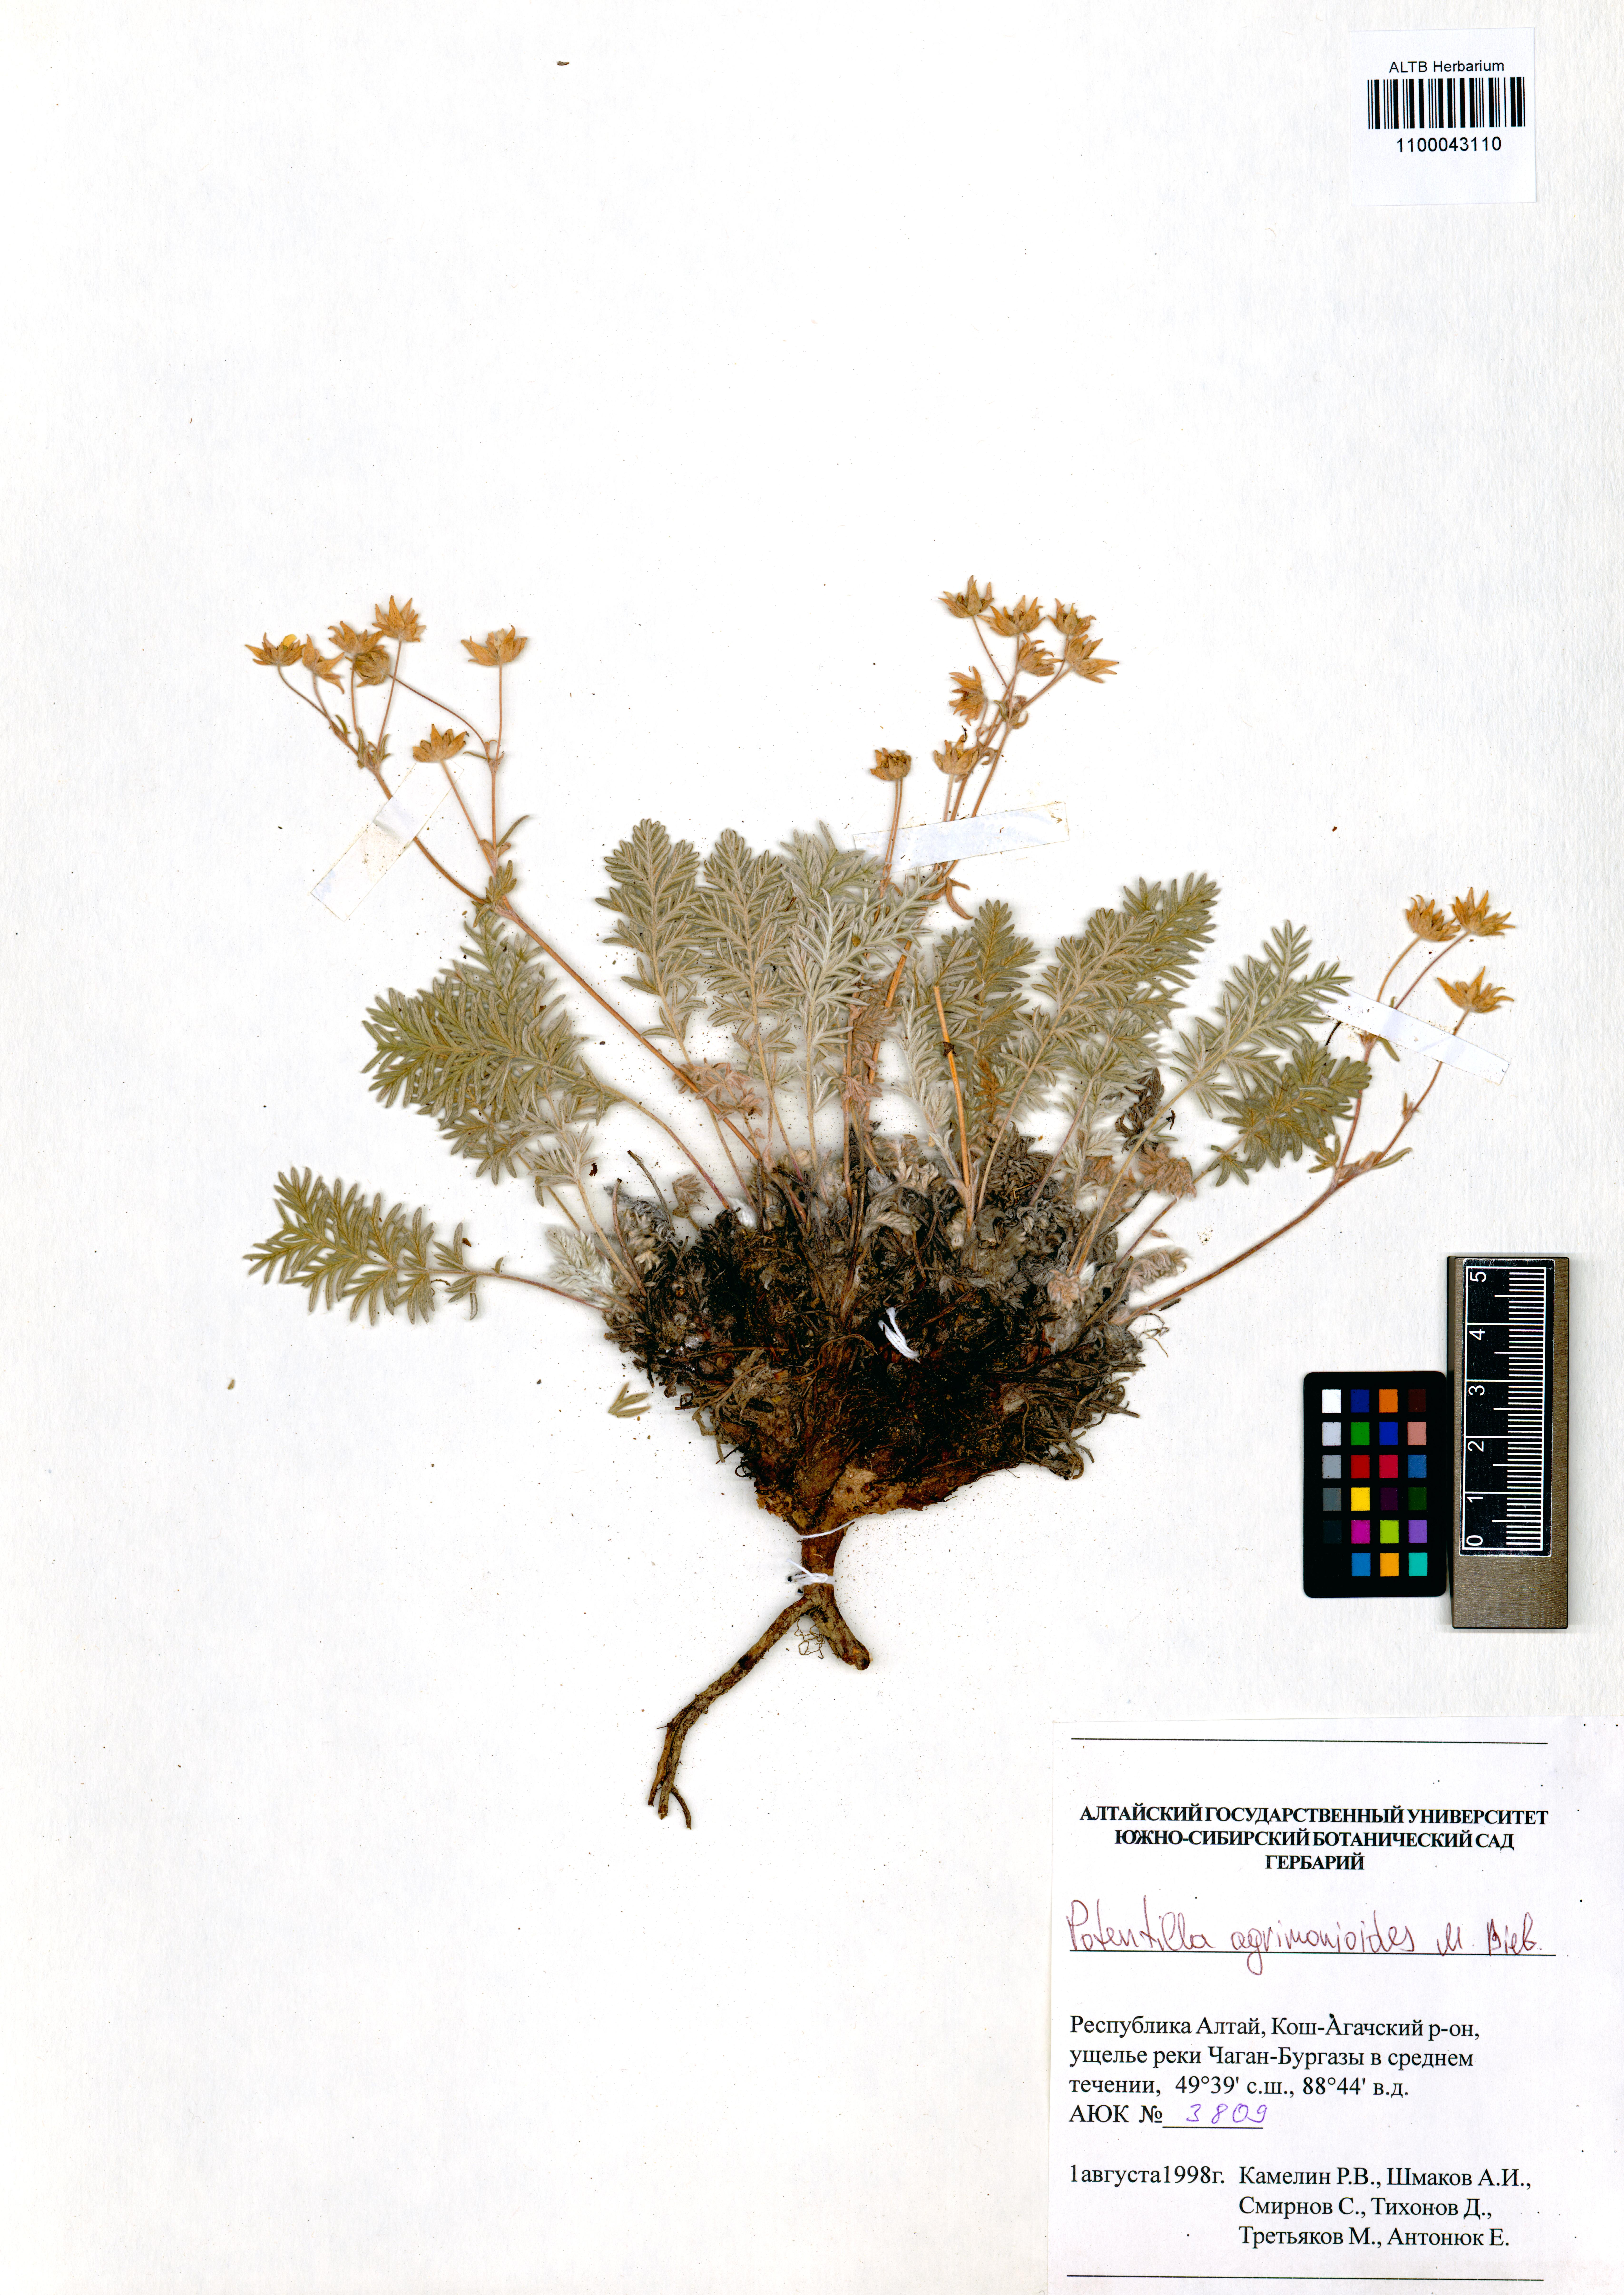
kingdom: Plantae
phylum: Tracheophyta
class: Magnoliopsida
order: Rosales
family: Rosaceae
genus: Potentilla
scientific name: Potentilla agrimonioides
